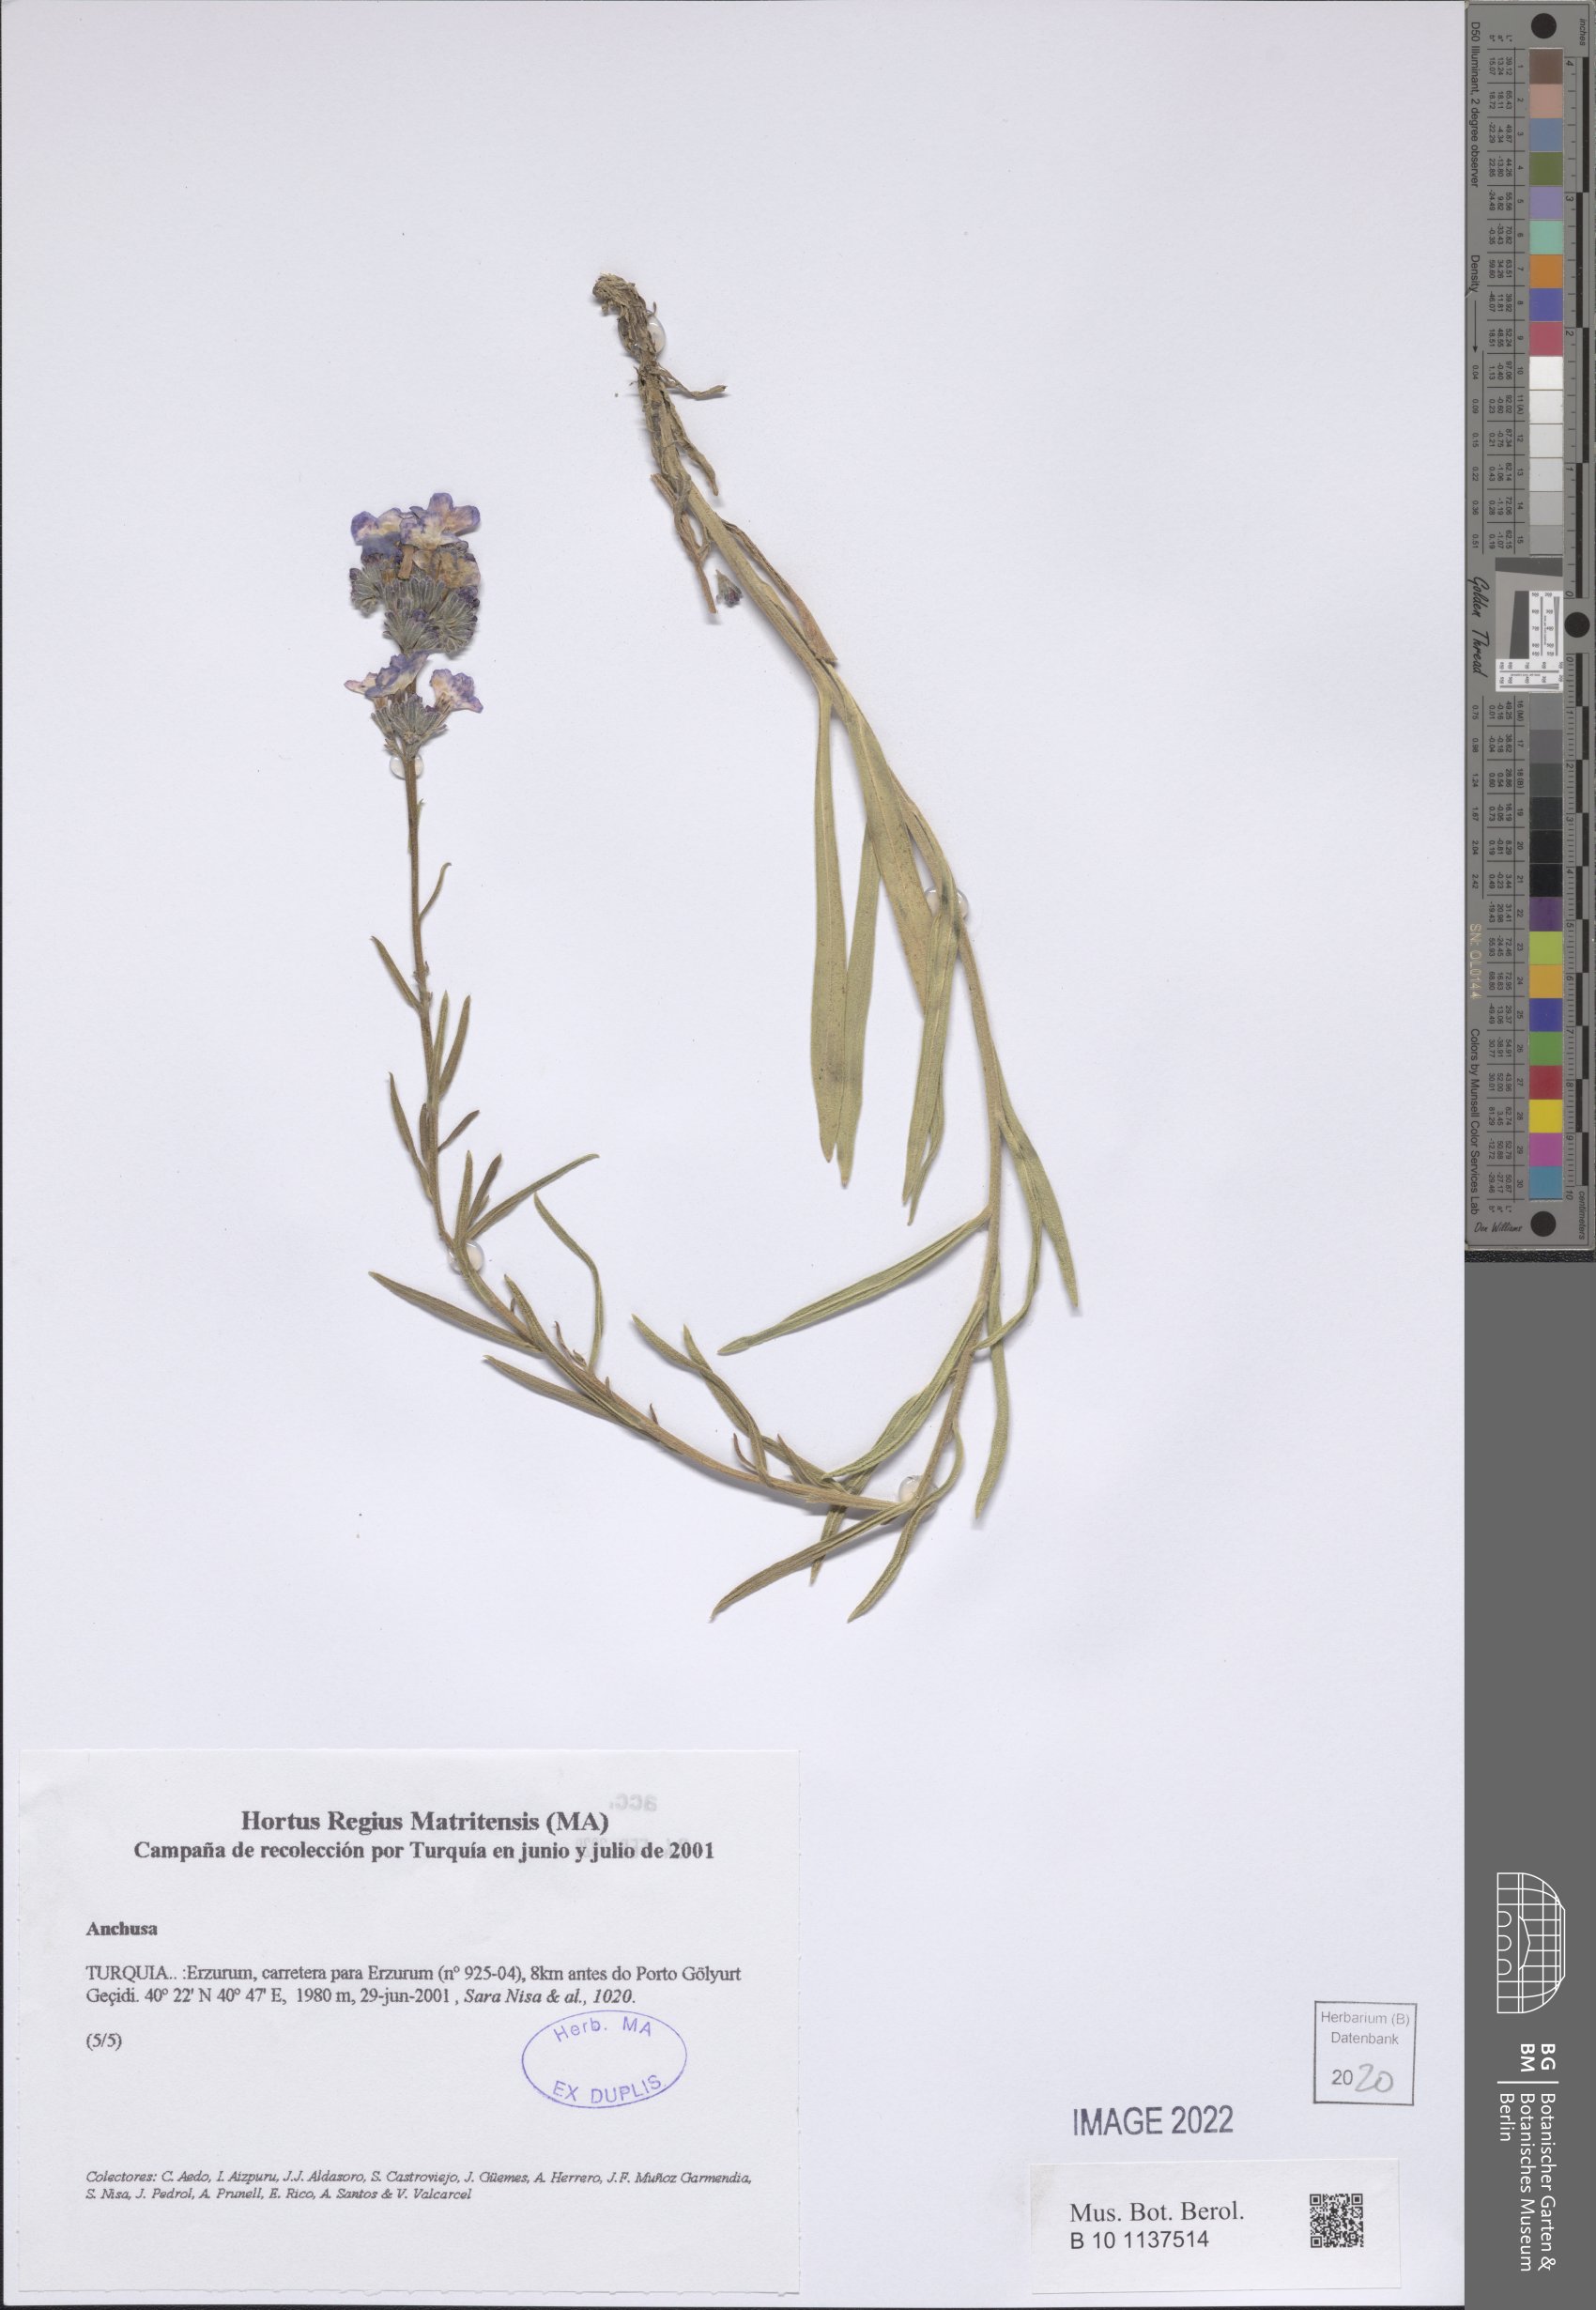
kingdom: Plantae
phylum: Tracheophyta
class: Magnoliopsida
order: Boraginales
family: Boraginaceae
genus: Anchusa
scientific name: Anchusa
